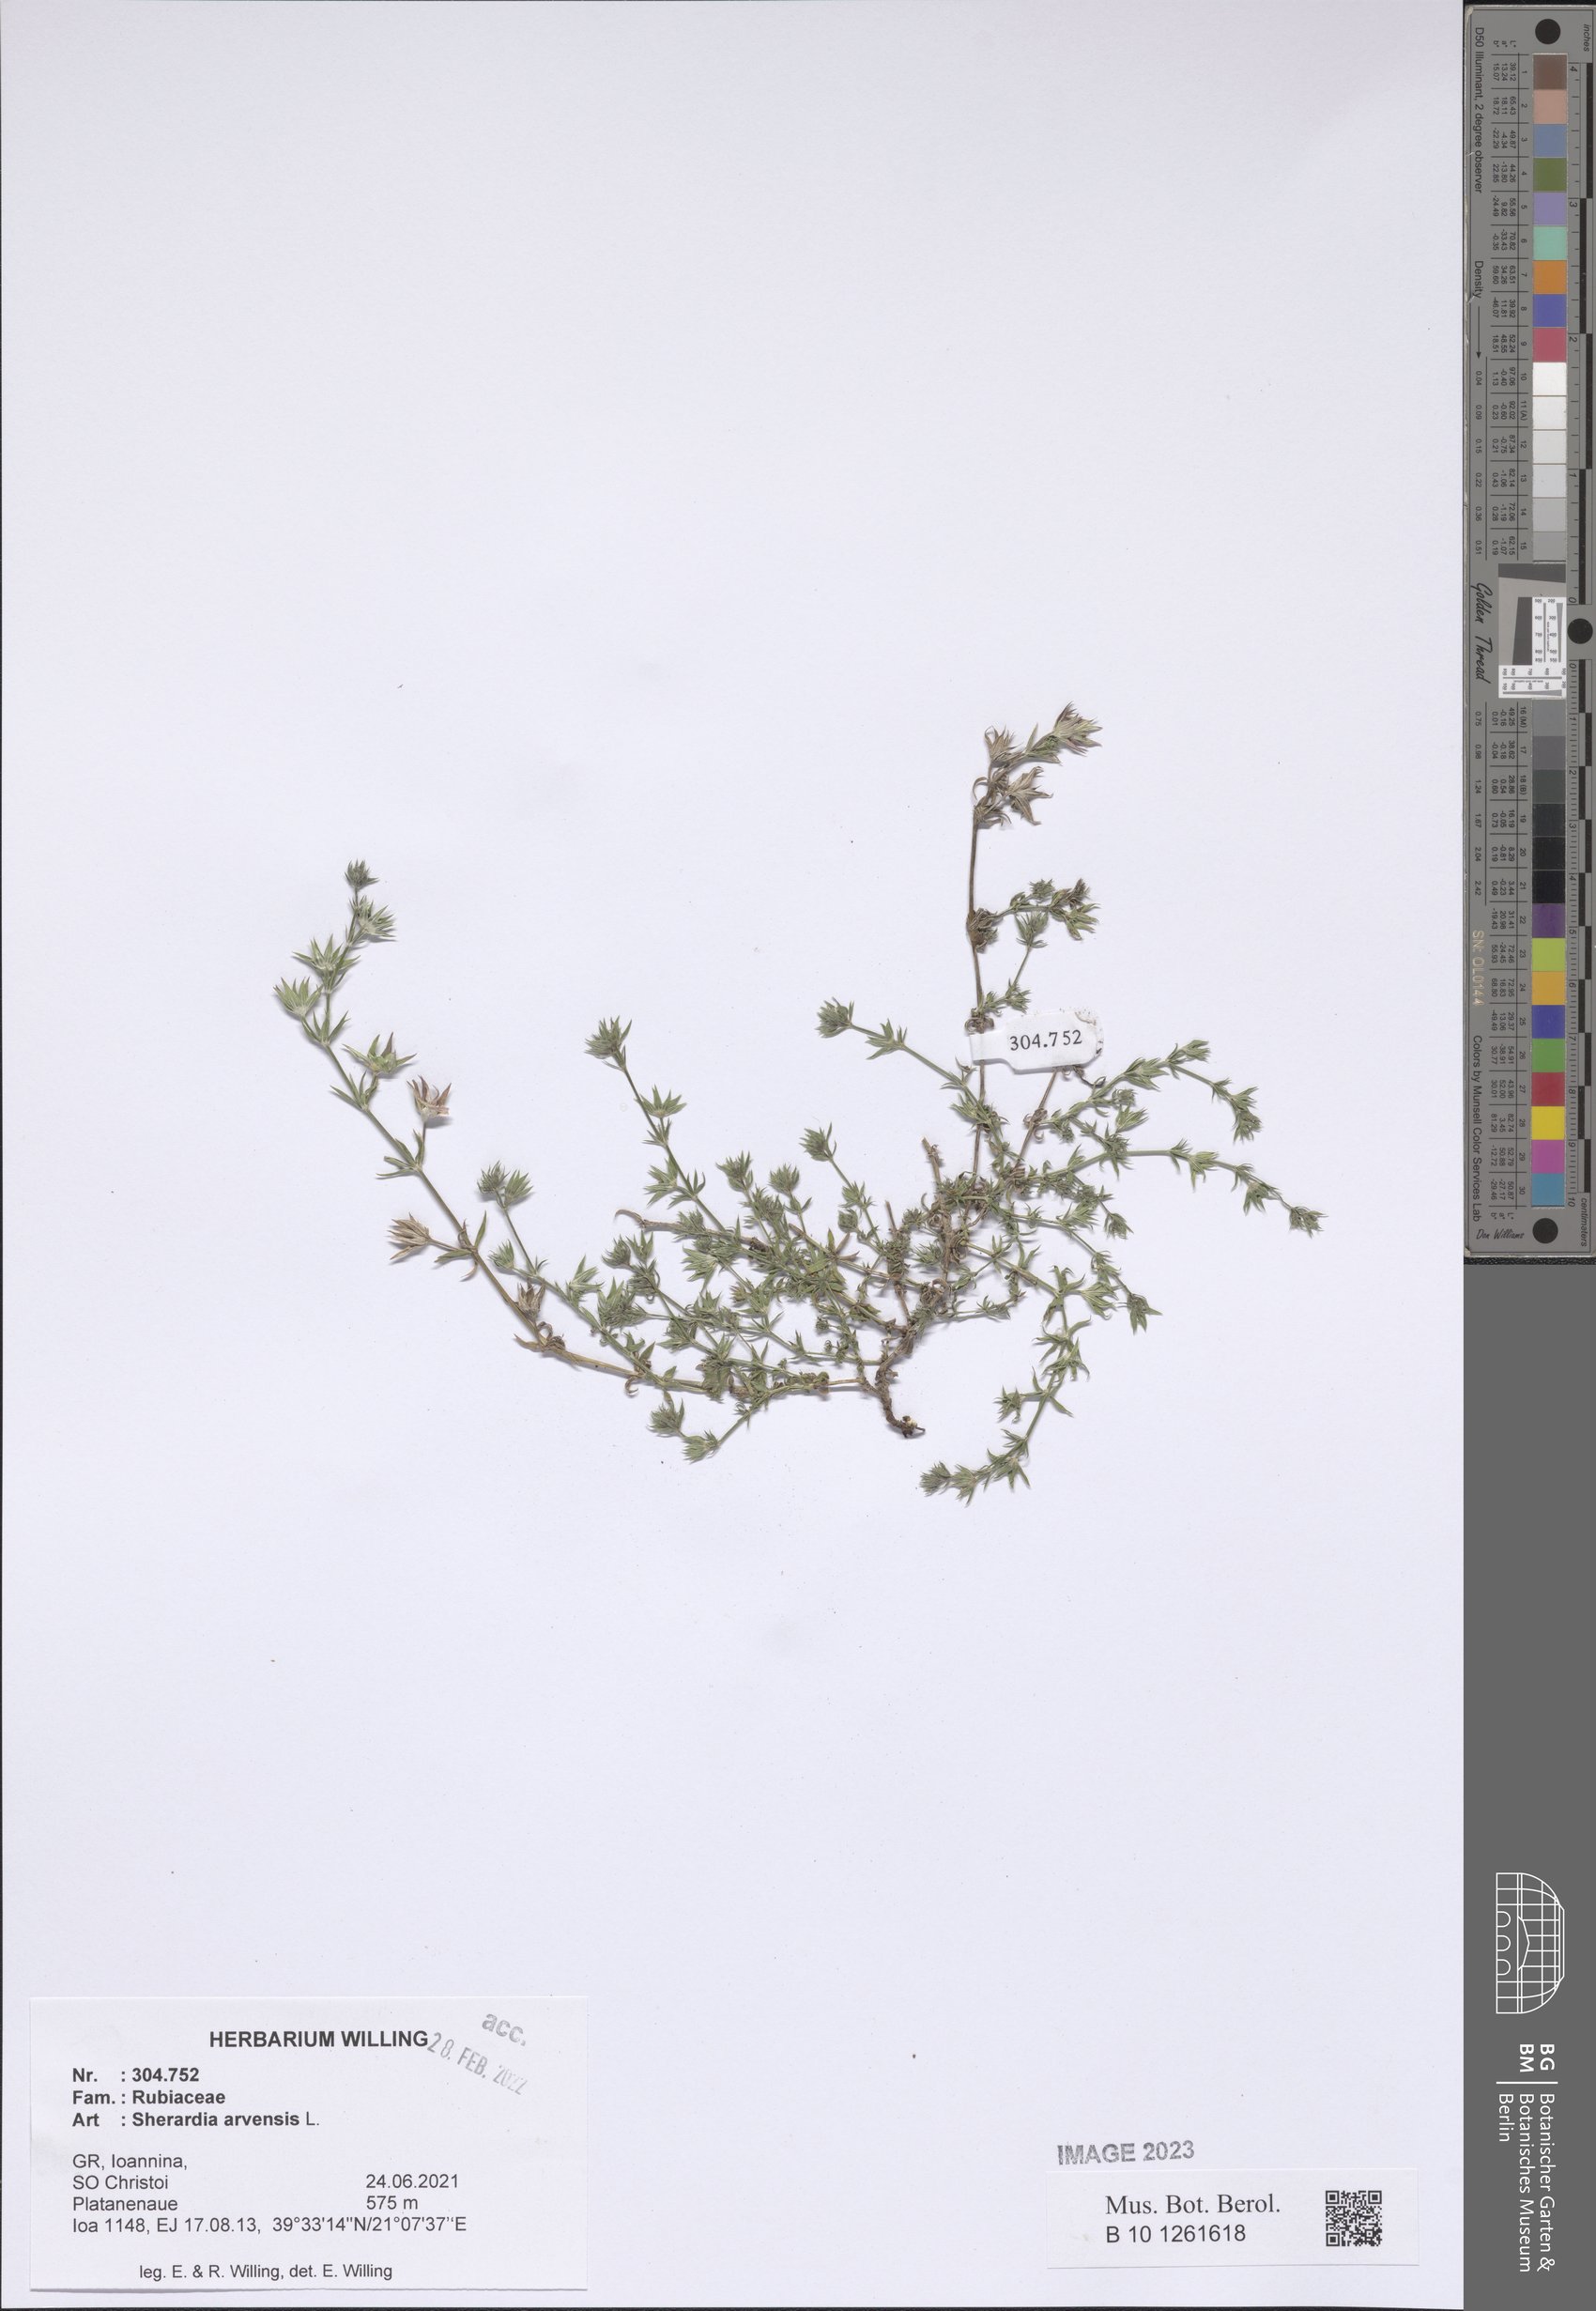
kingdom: Plantae
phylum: Tracheophyta
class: Magnoliopsida
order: Gentianales
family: Rubiaceae
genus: Sherardia
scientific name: Sherardia arvensis
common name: Field madder
